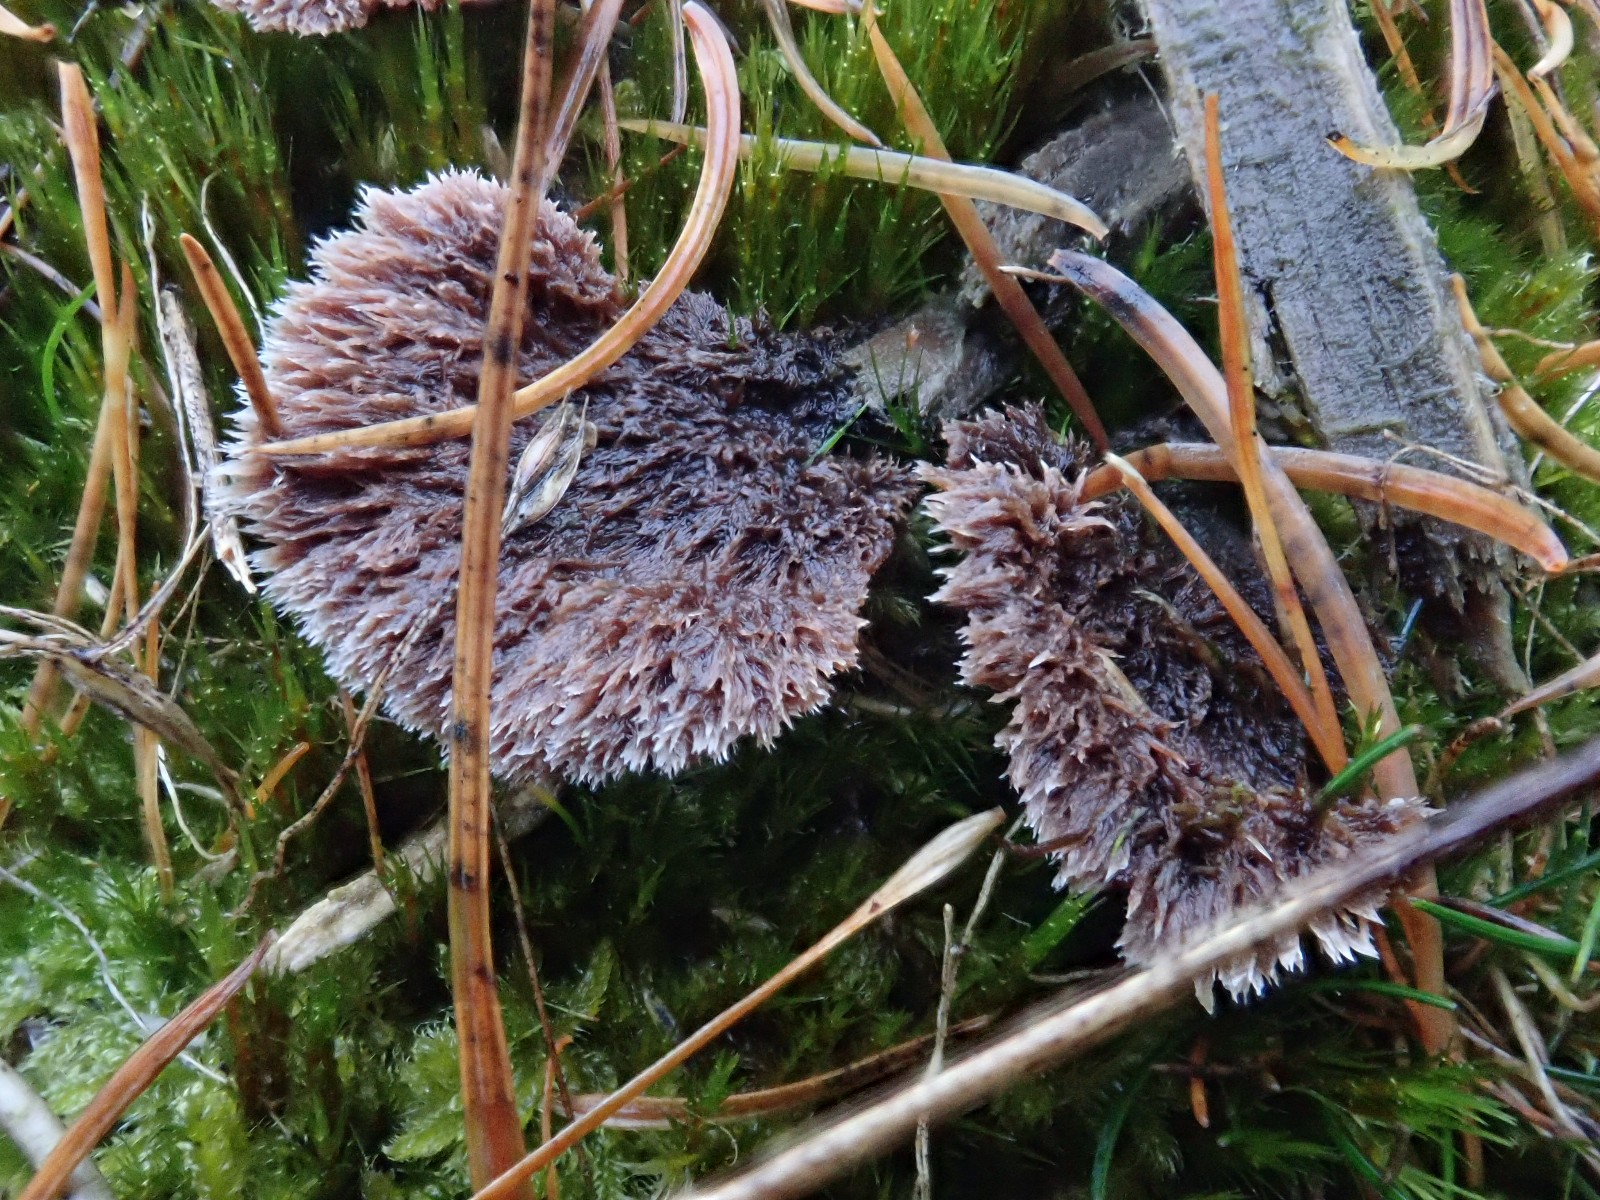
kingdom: Fungi
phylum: Basidiomycota
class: Agaricomycetes
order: Thelephorales
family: Thelephoraceae
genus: Thelephora
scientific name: Thelephora terrestris
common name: fliget frynsesvamp
